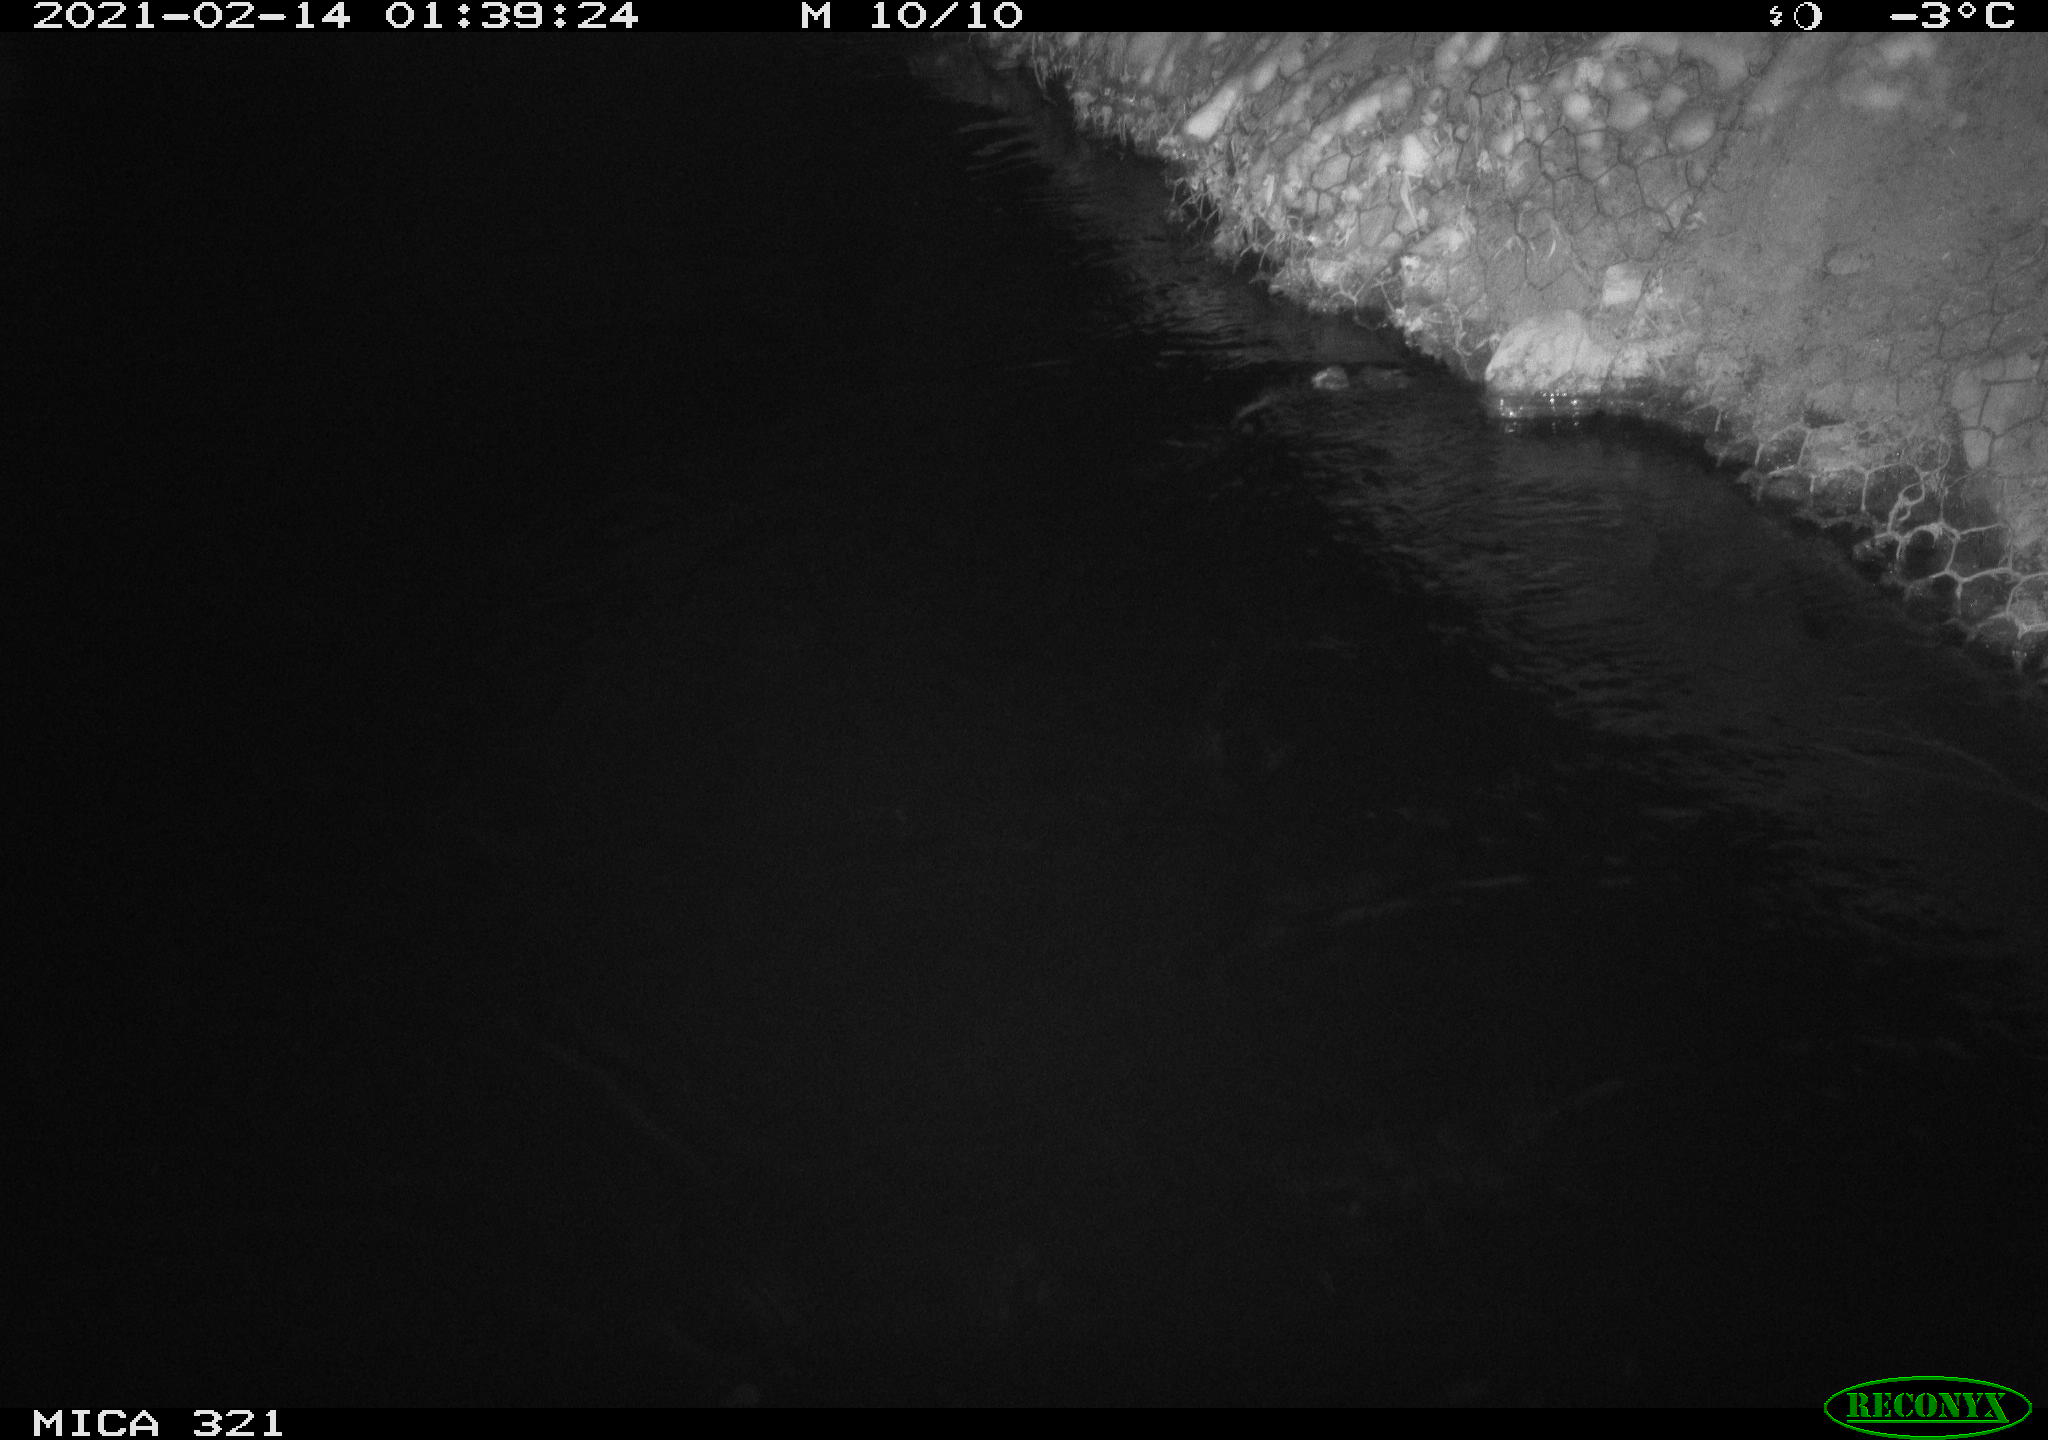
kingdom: Animalia
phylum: Chordata
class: Aves
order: Anseriformes
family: Anatidae
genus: Anas
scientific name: Anas platyrhynchos
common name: Mallard
